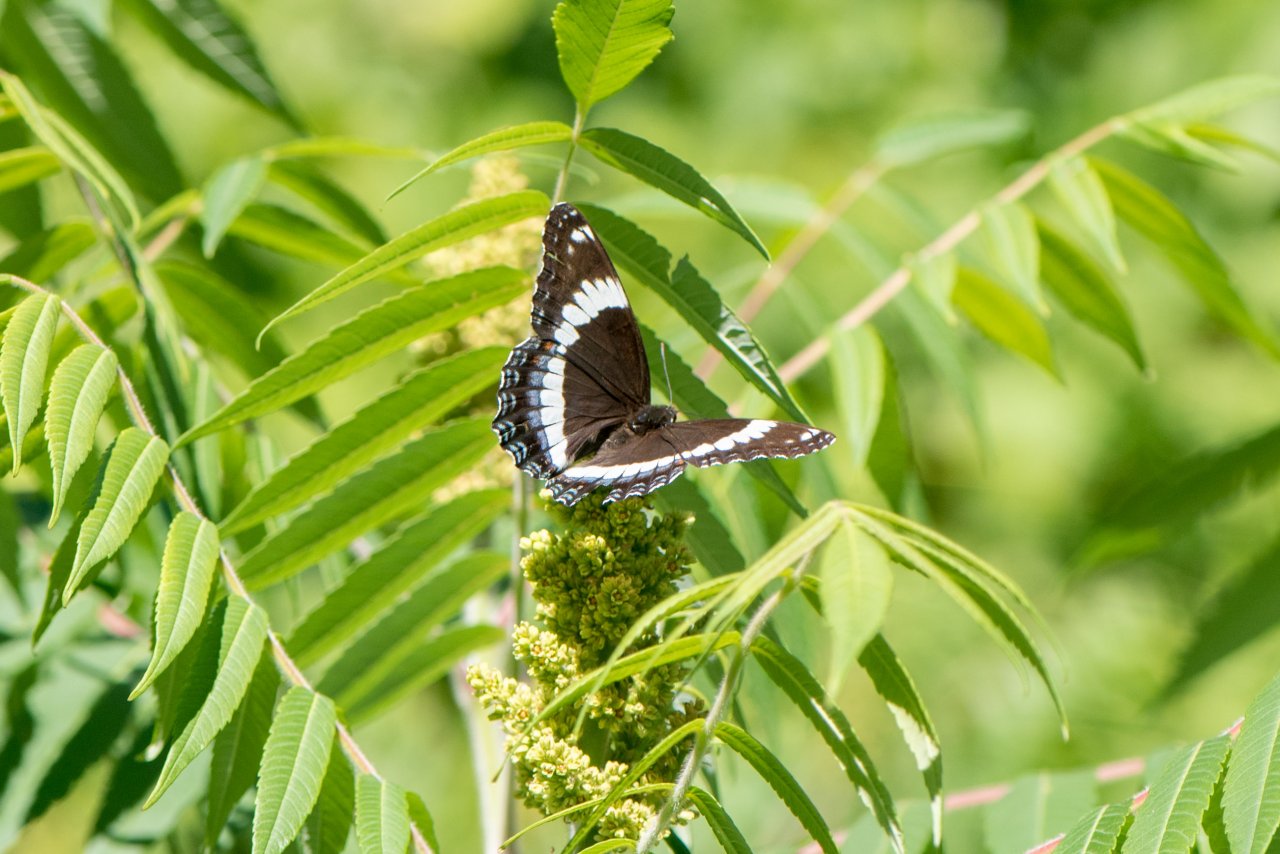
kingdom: Animalia
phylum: Arthropoda
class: Insecta
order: Lepidoptera
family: Nymphalidae
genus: Limenitis
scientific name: Limenitis arthemis
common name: Red-spotted Admiral
